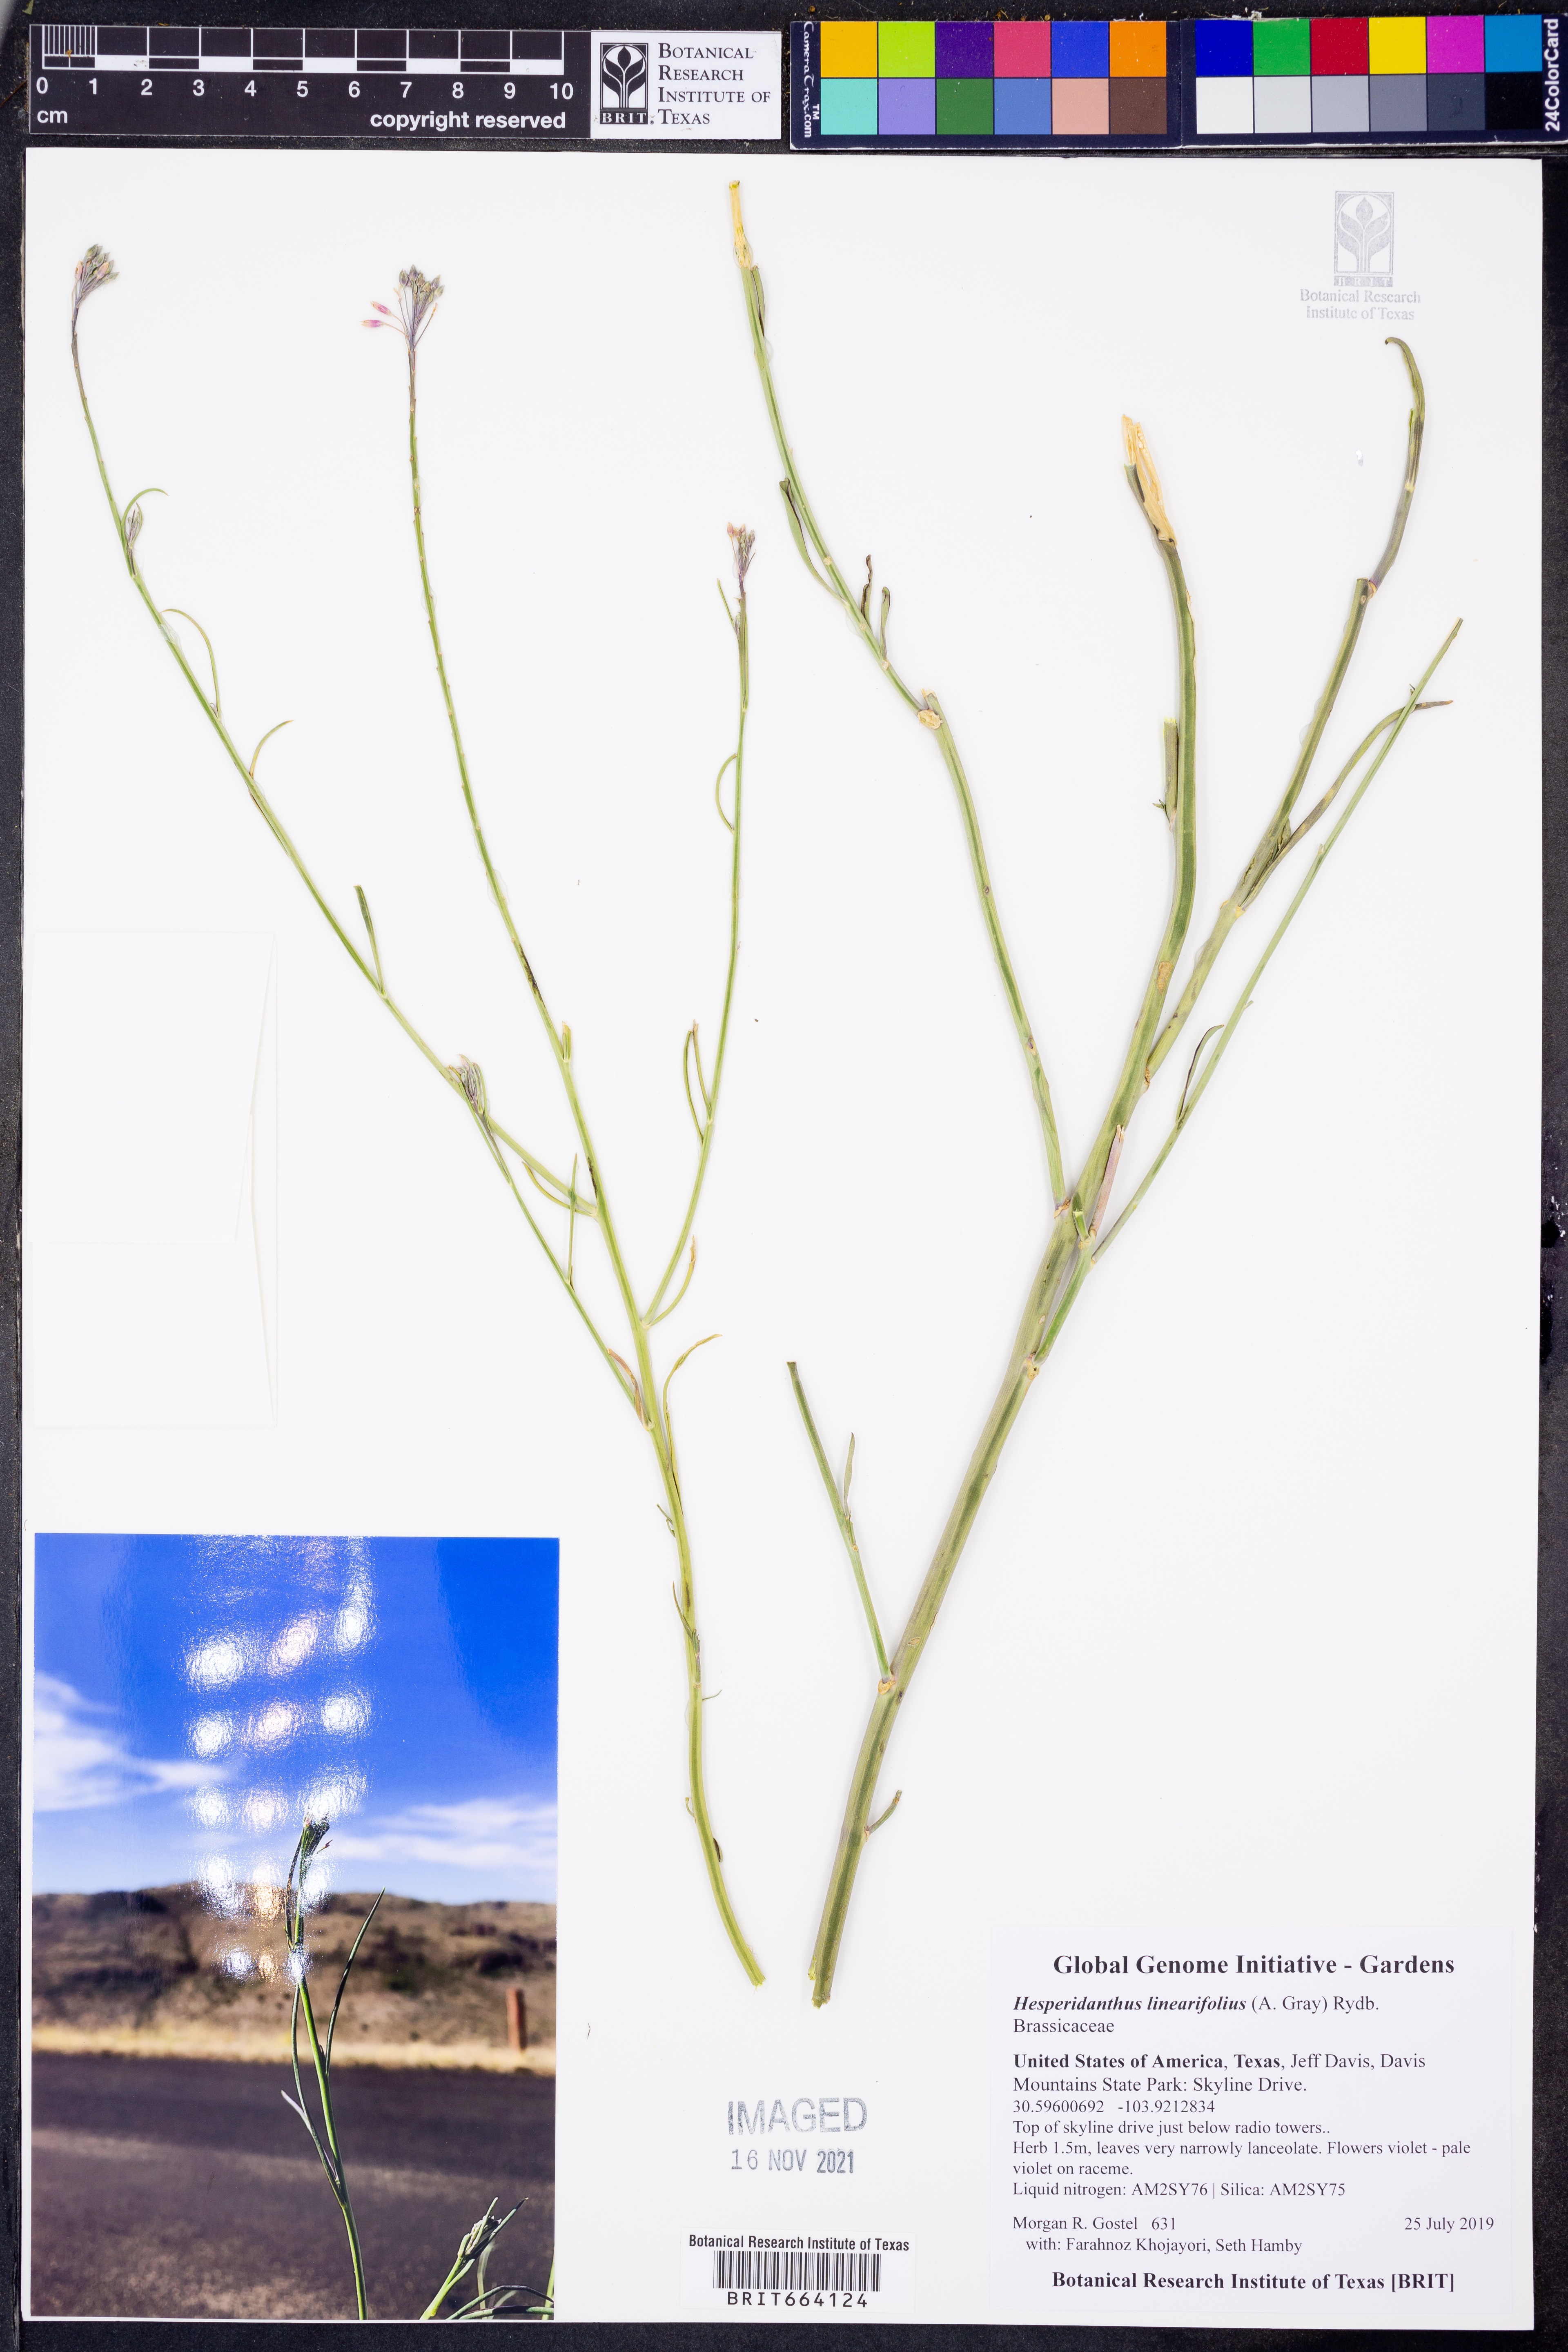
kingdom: Plantae
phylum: Tracheophyta
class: Magnoliopsida
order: Brassicales
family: Brassicaceae
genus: Hesperidanthus
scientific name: Hesperidanthus linearifolius
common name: Slim-leaf plains mustard
